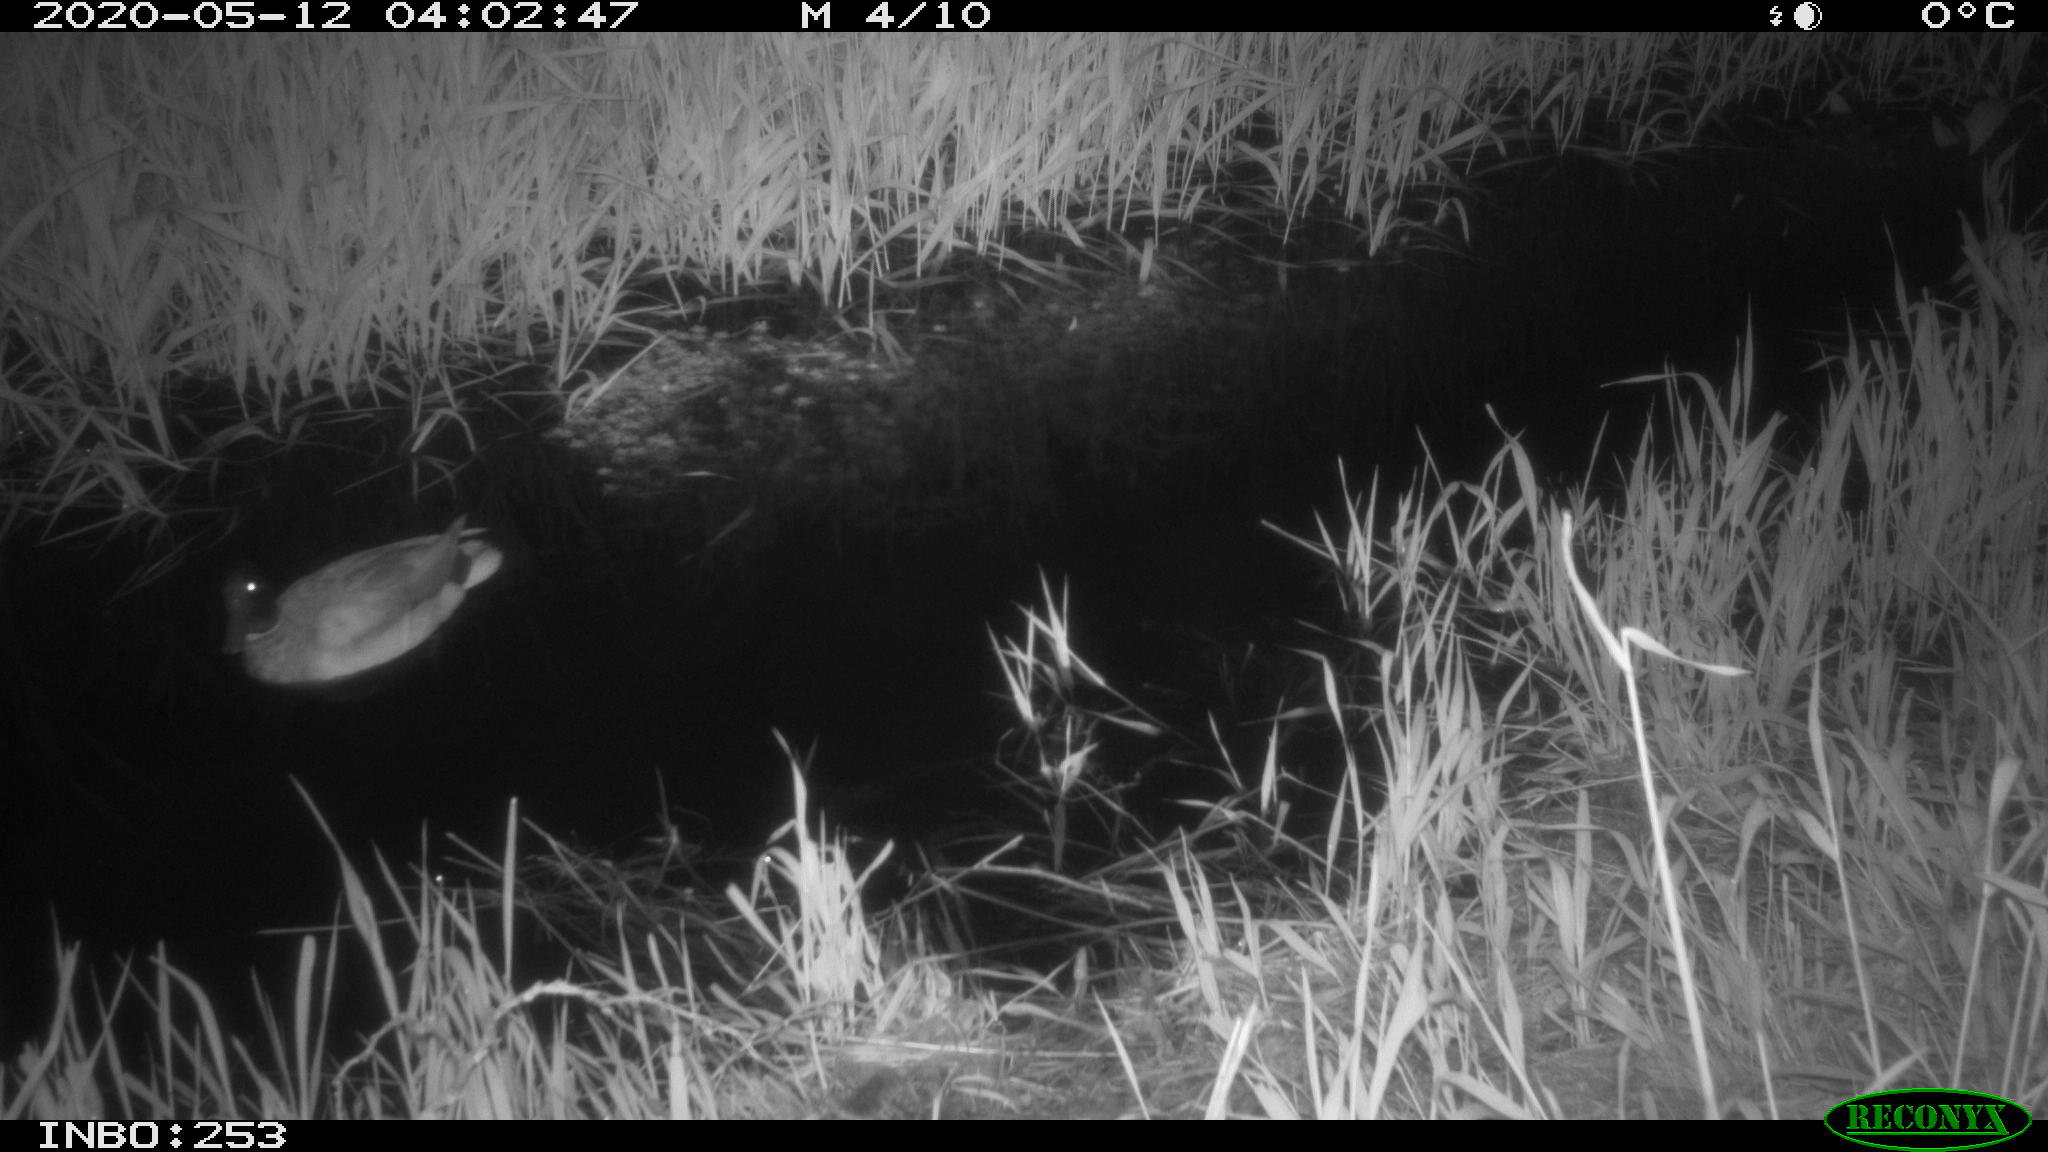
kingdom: Animalia
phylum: Chordata
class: Aves
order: Anseriformes
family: Anatidae
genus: Anas
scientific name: Anas platyrhynchos
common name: Mallard
